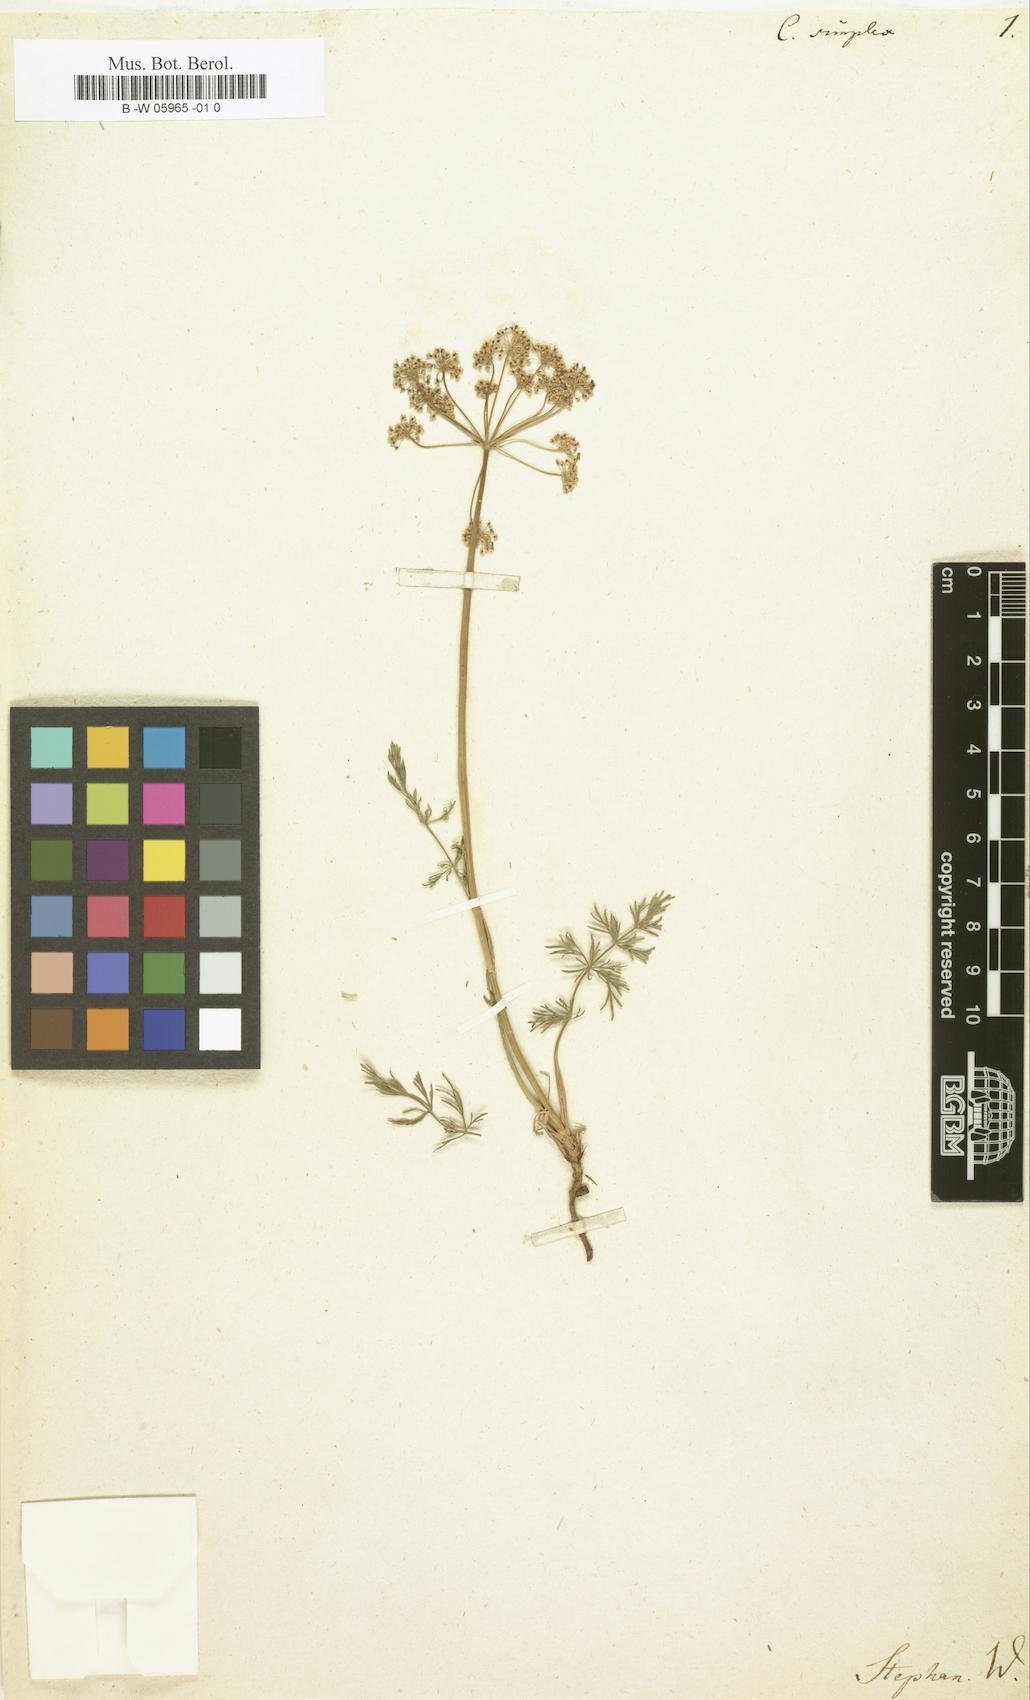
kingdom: Plantae
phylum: Tracheophyta
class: Magnoliopsida
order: Apiales
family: Apiaceae
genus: Seseli
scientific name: Seseli annuum
